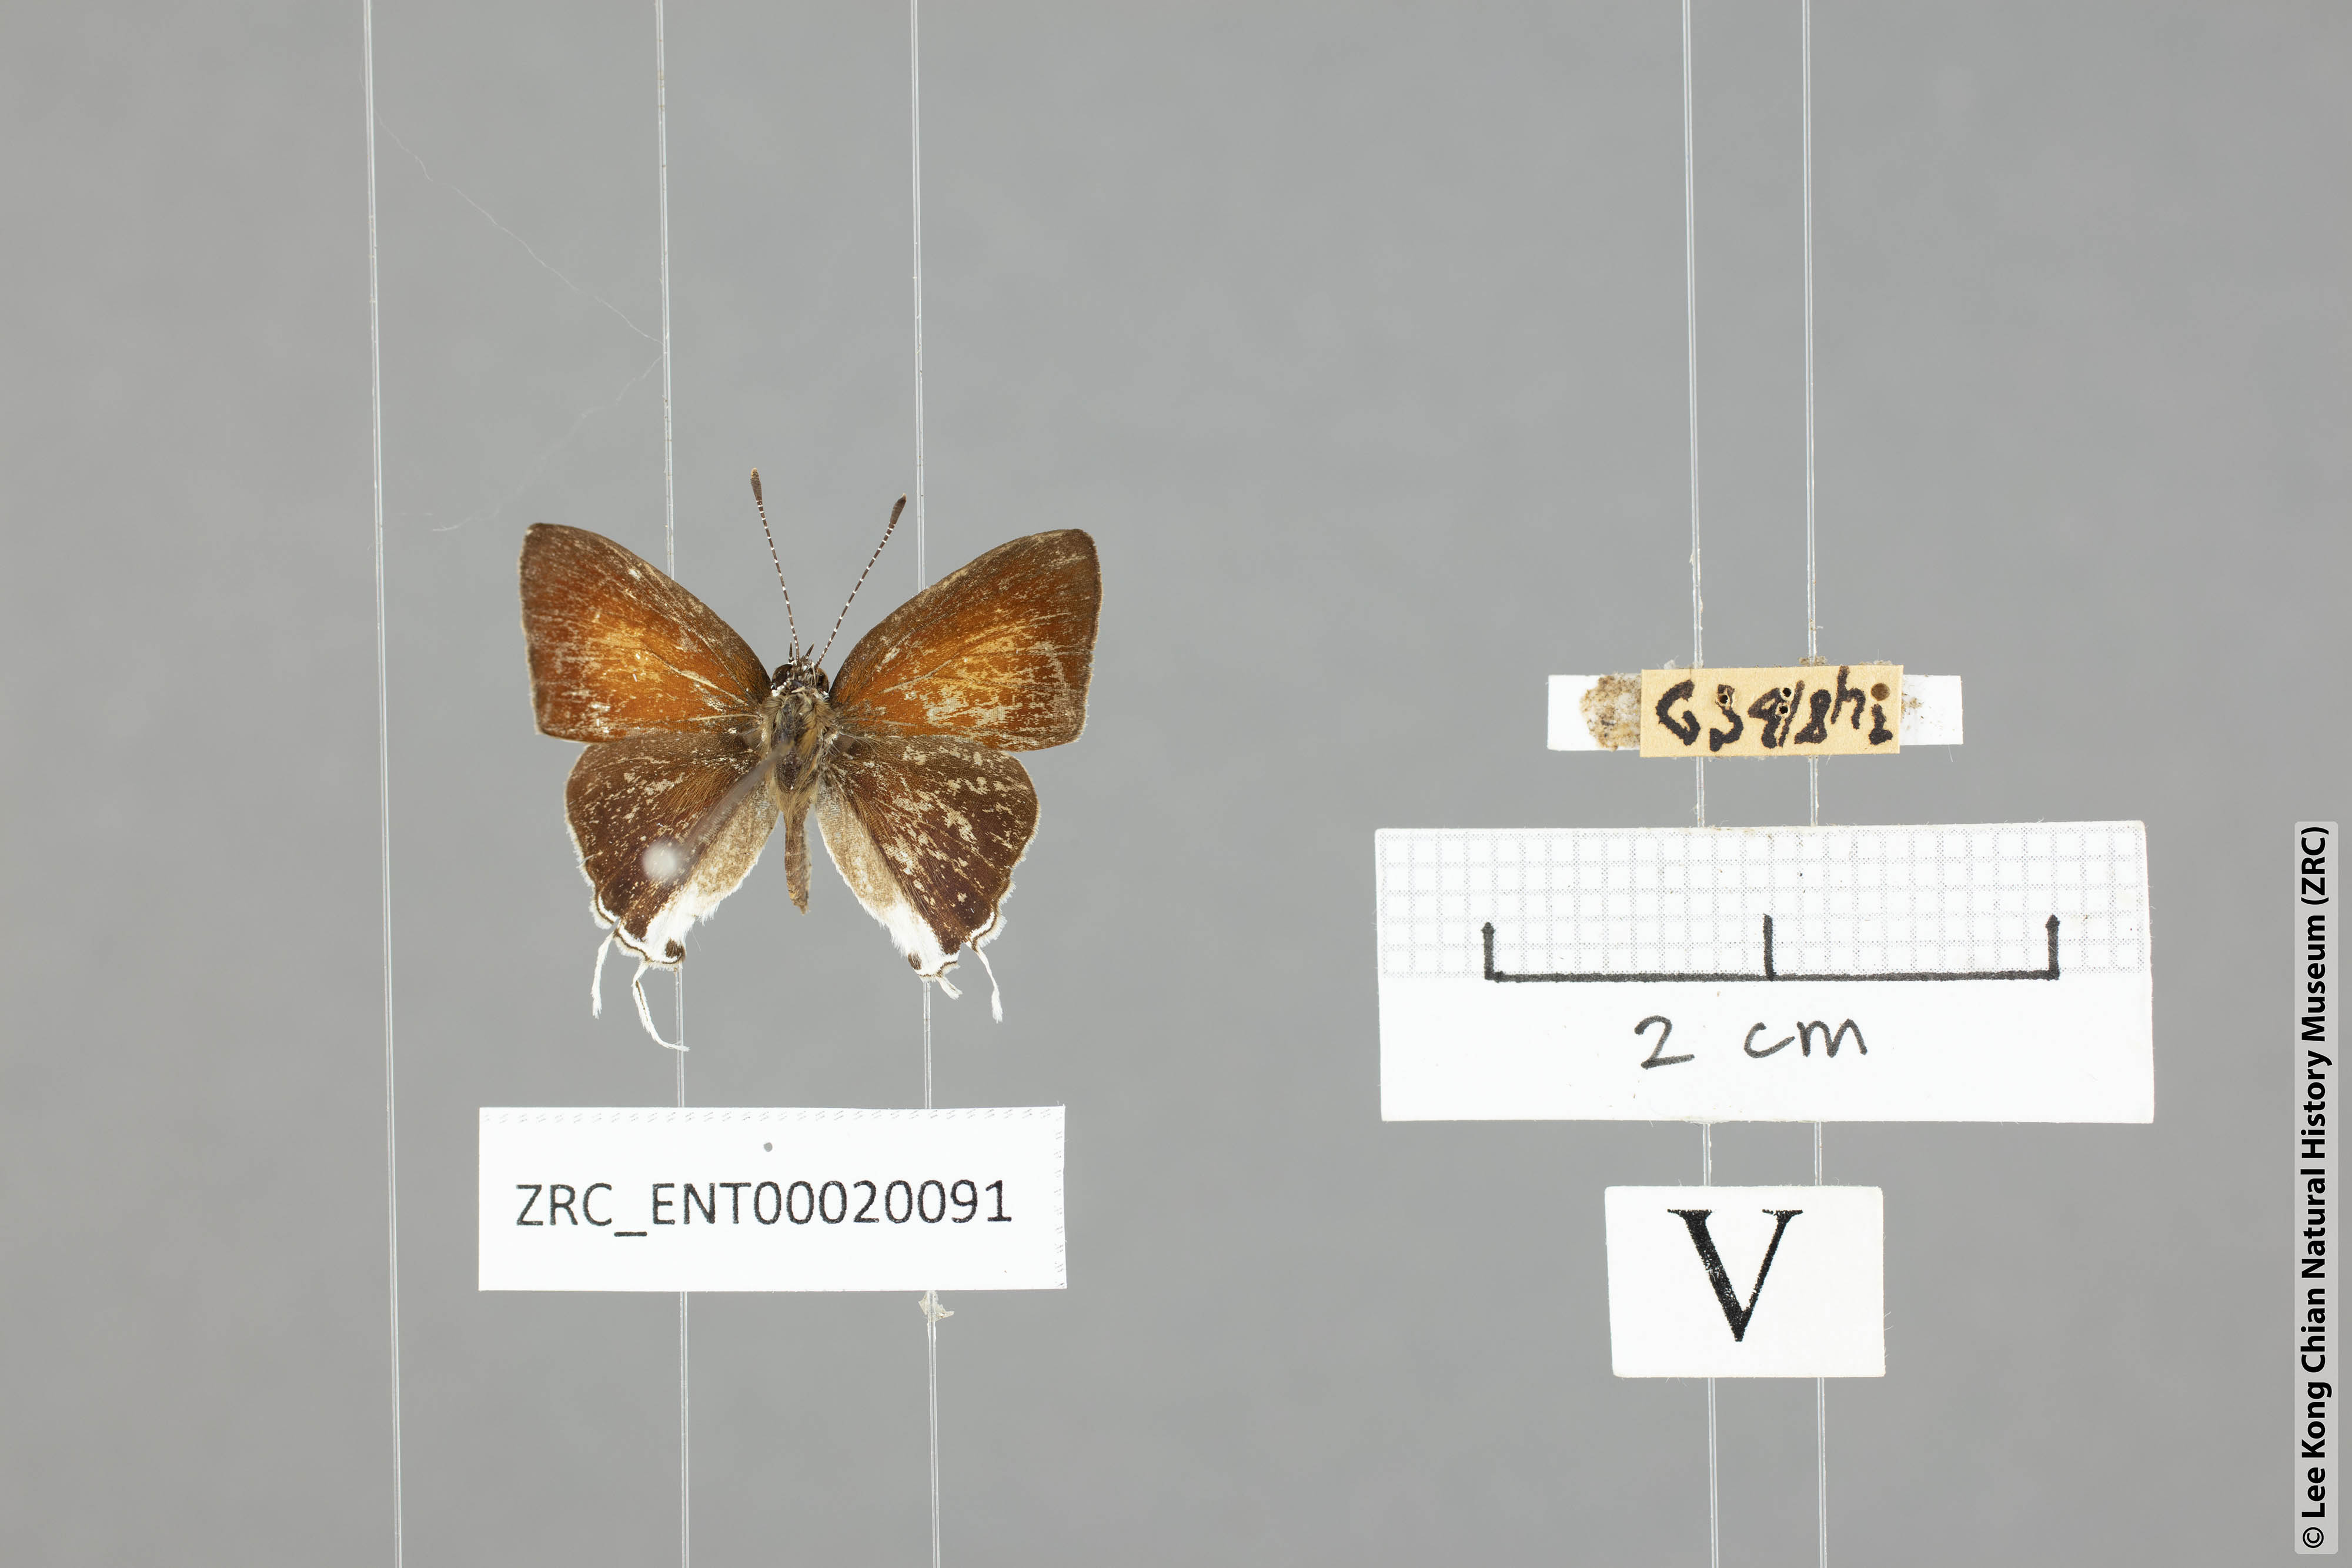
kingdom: Animalia
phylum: Arthropoda
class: Insecta
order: Lepidoptera
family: Lycaenidae
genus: Chliaria
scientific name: Chliaria balua
